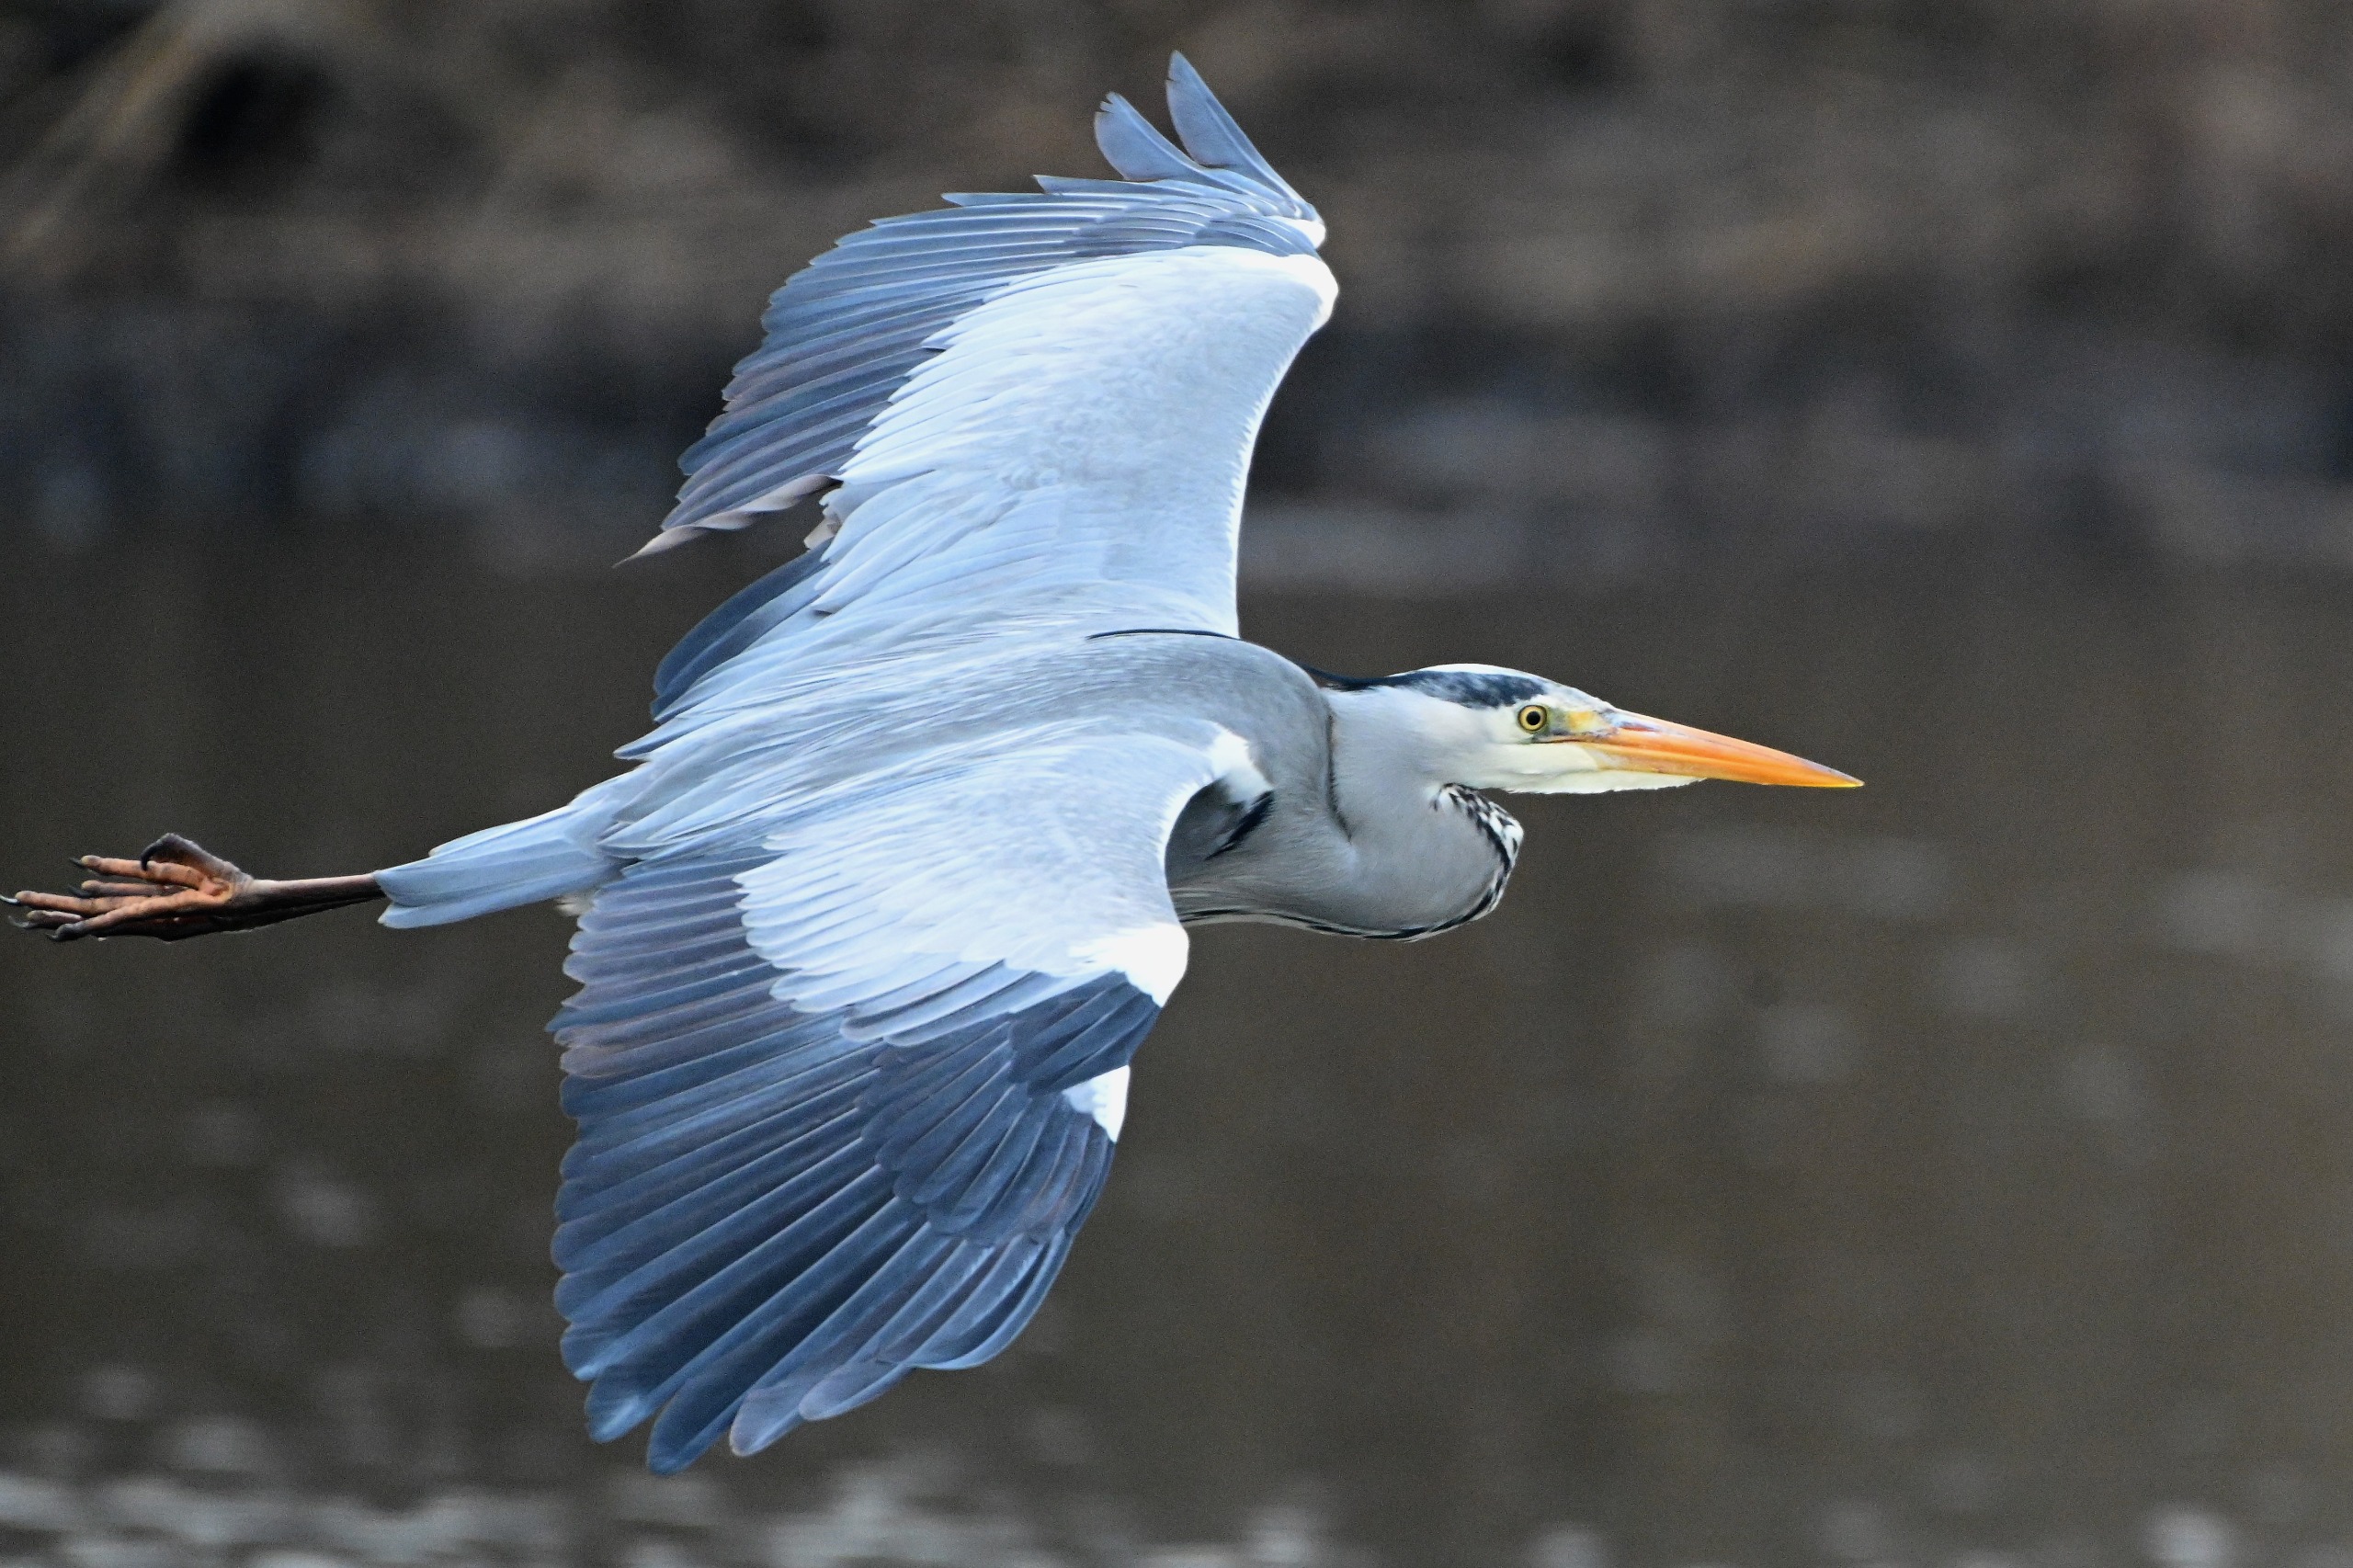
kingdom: Animalia
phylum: Chordata
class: Aves
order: Pelecaniformes
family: Ardeidae
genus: Ardea
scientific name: Ardea cinerea
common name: Fiskehejre
